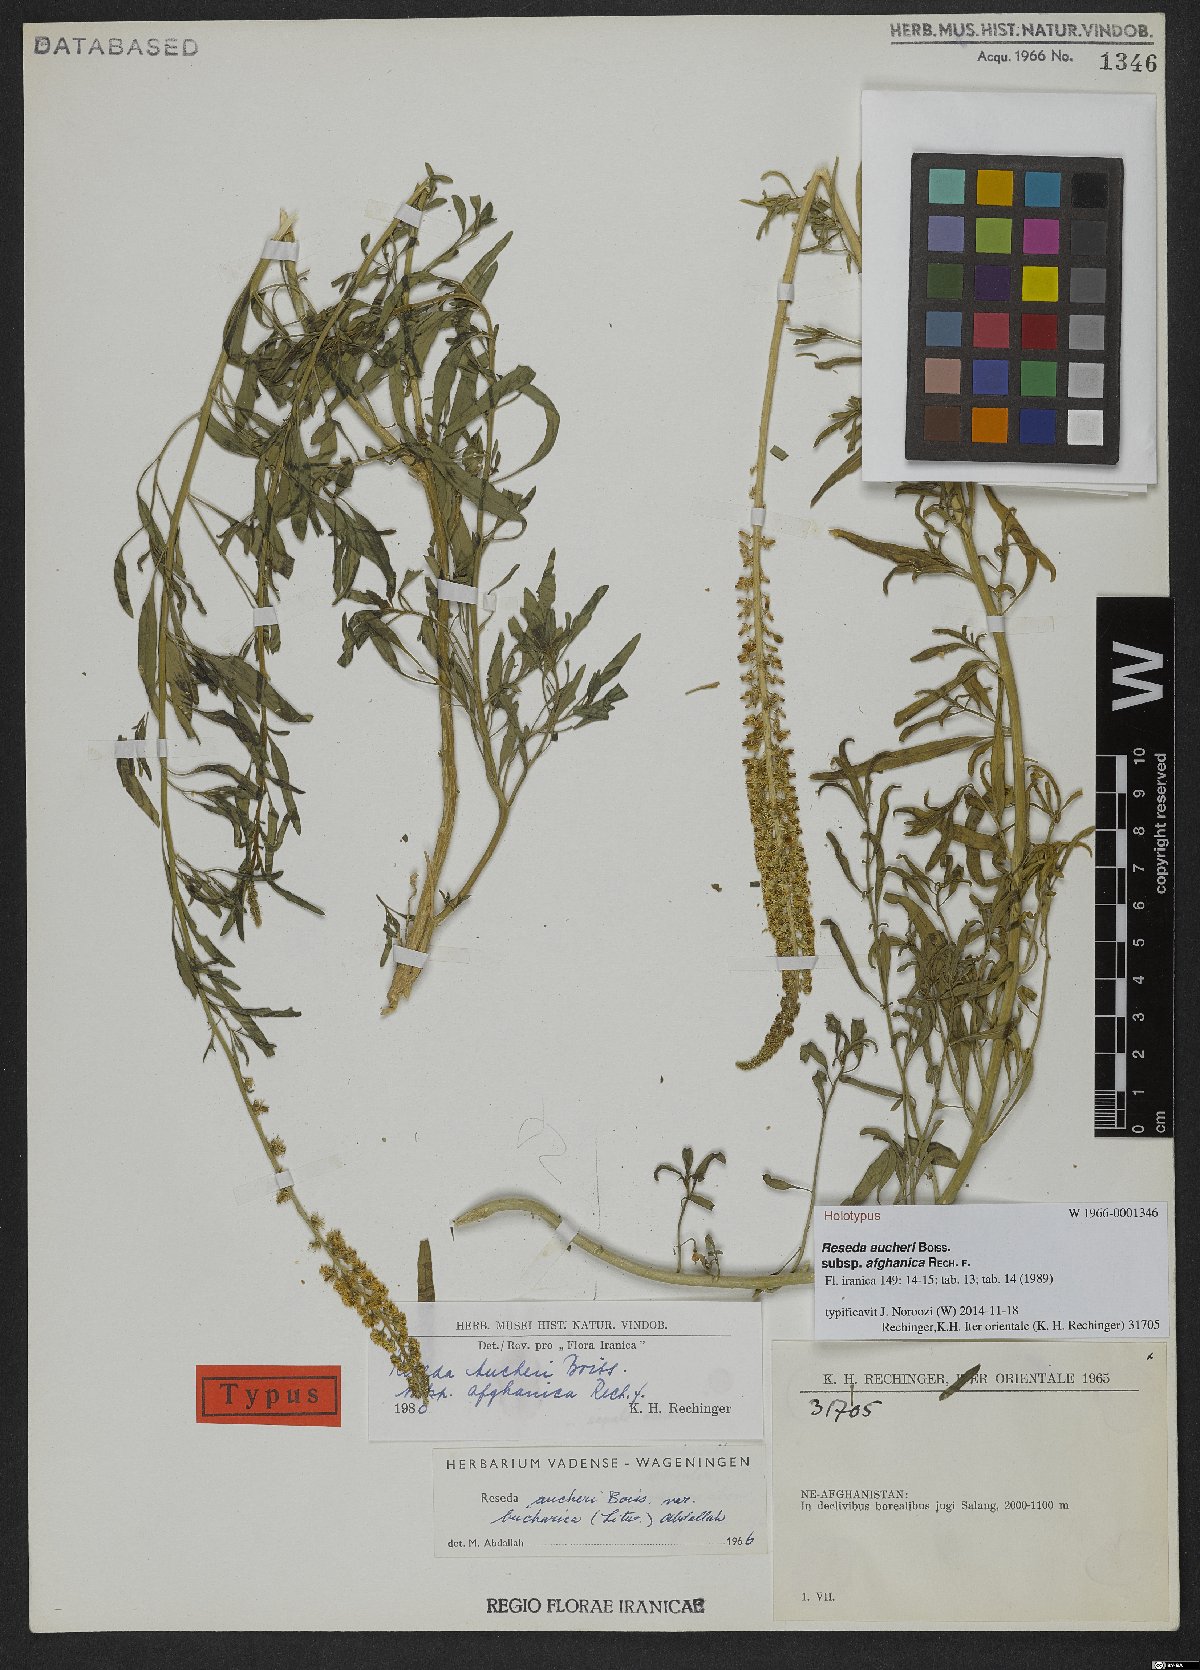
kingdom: Plantae
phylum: Tracheophyta
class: Magnoliopsida
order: Brassicales
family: Resedaceae
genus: Reseda
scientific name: Reseda aucheri
